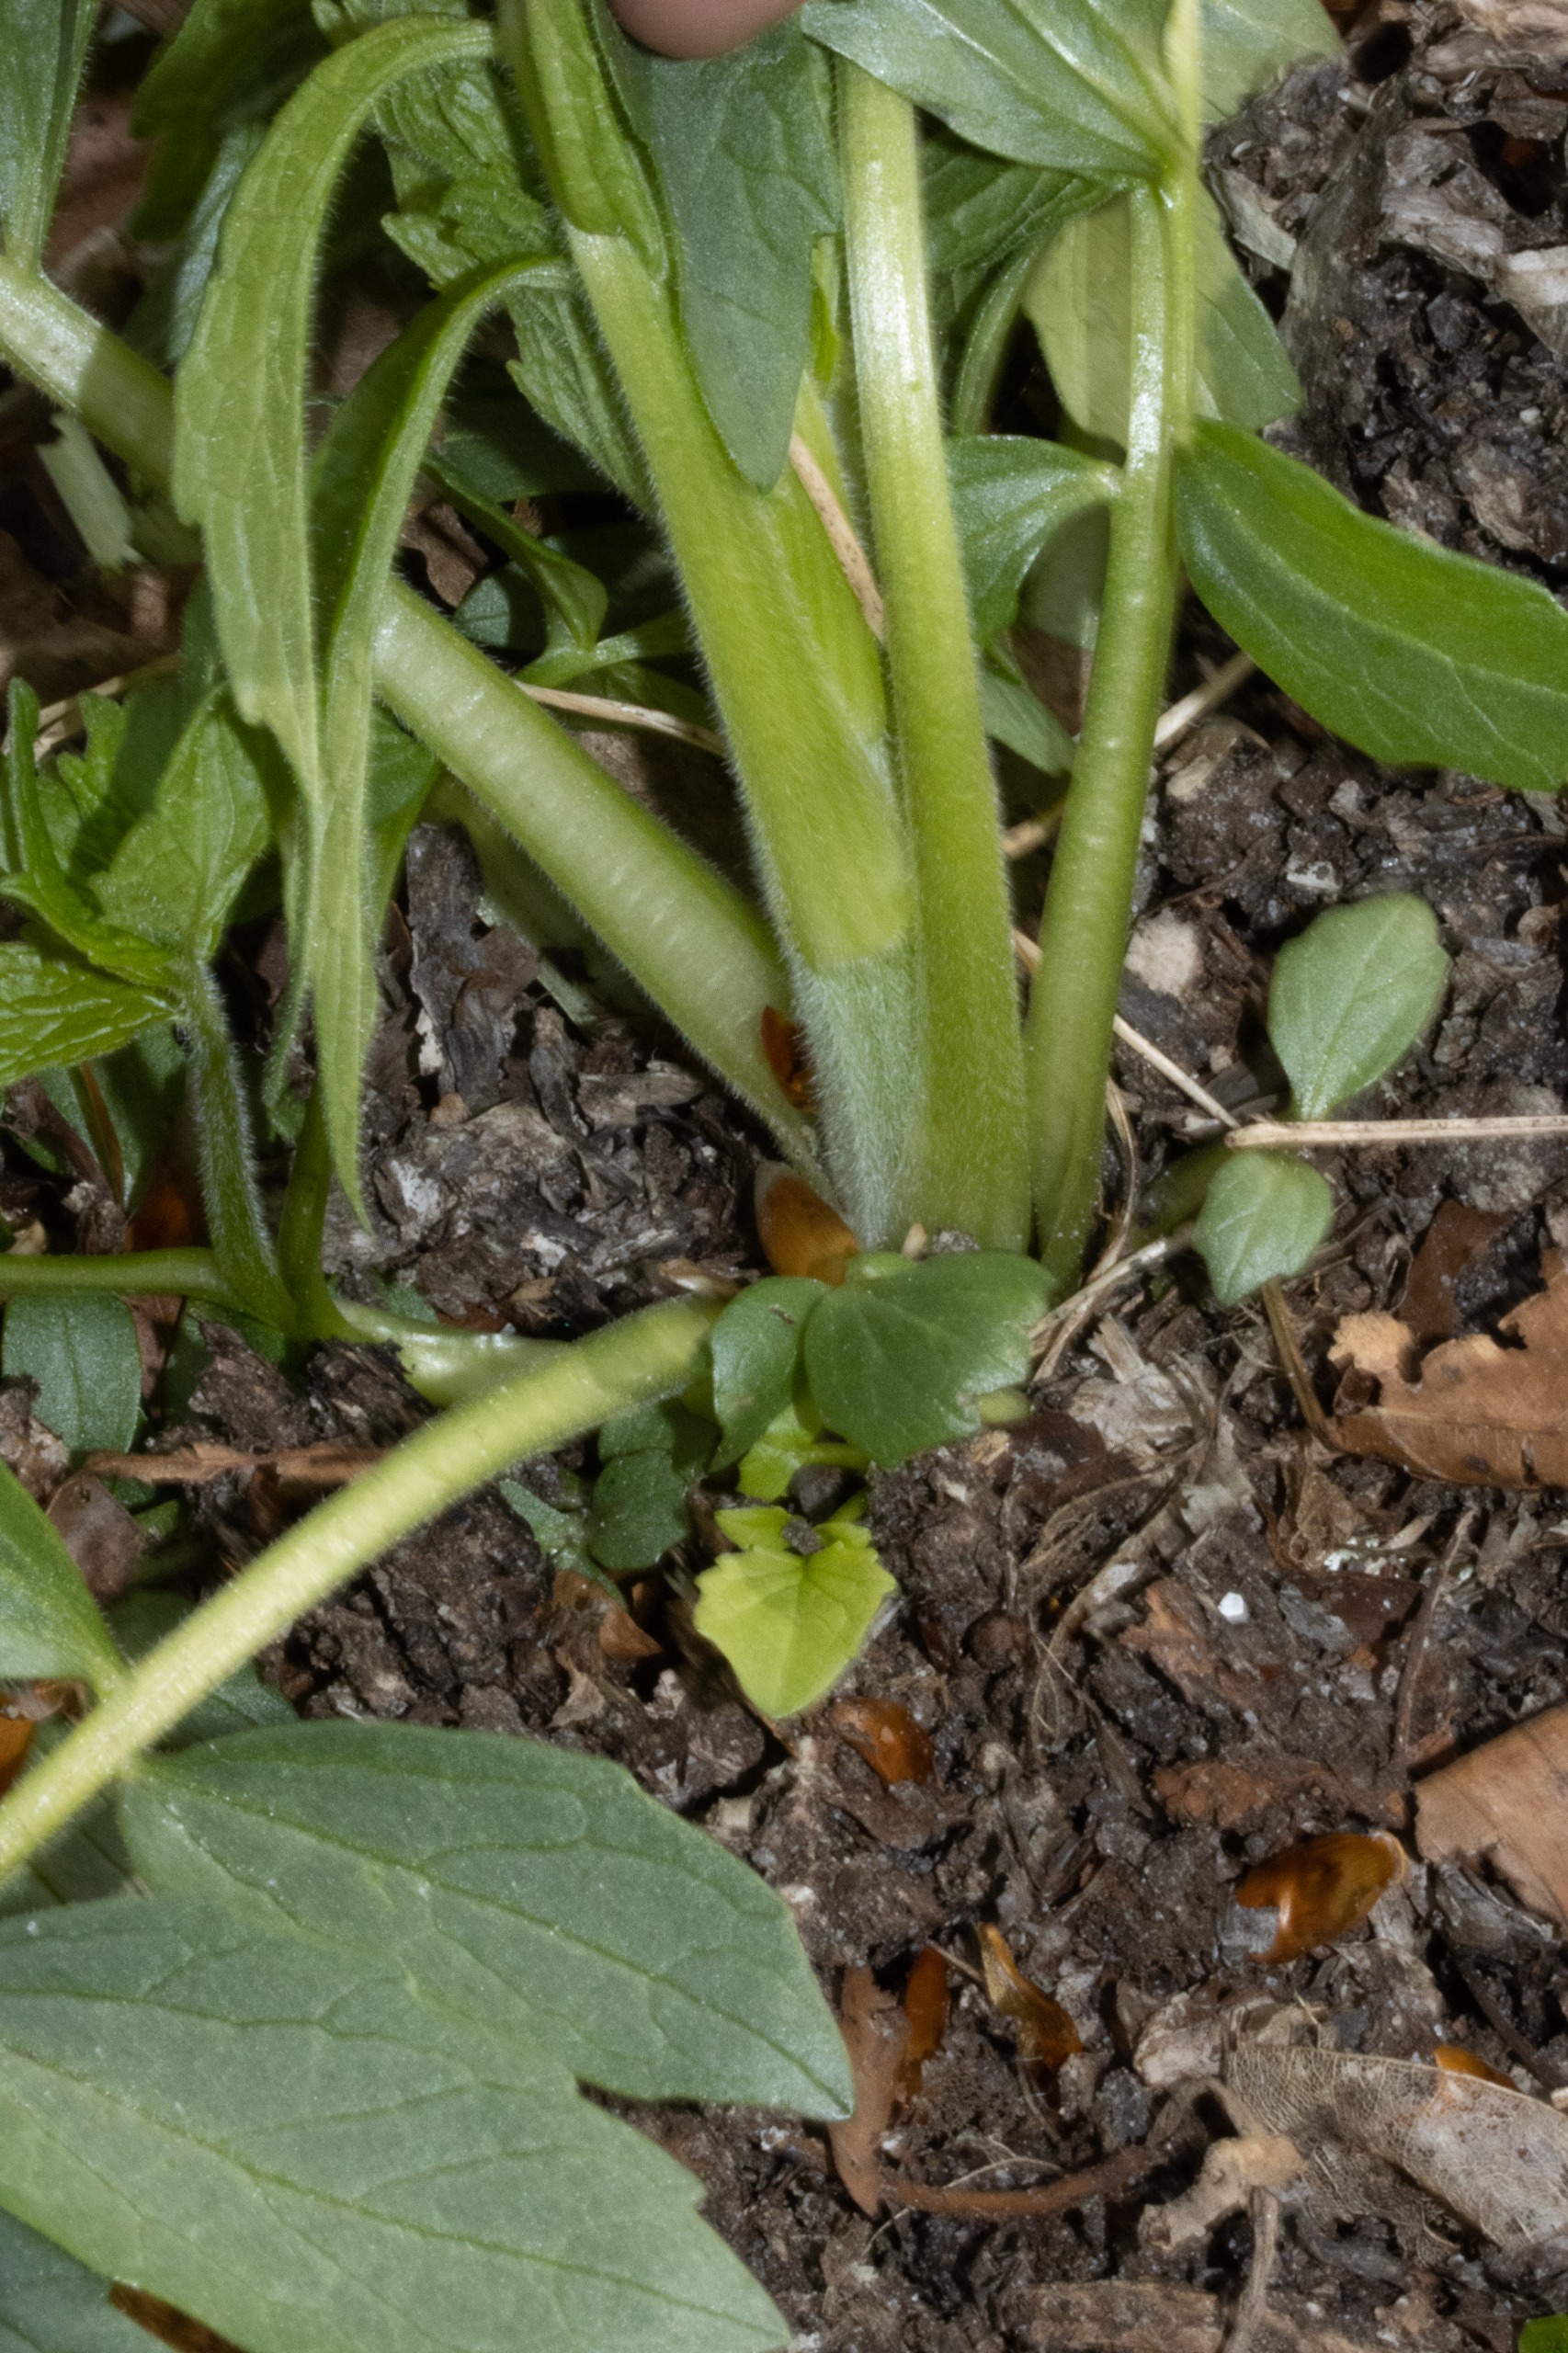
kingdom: Plantae
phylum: Tracheophyta
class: Magnoliopsida
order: Dipsacales
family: Caprifoliaceae
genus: Valeriana
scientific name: Valeriana excelsa
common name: Krybende baldrian
